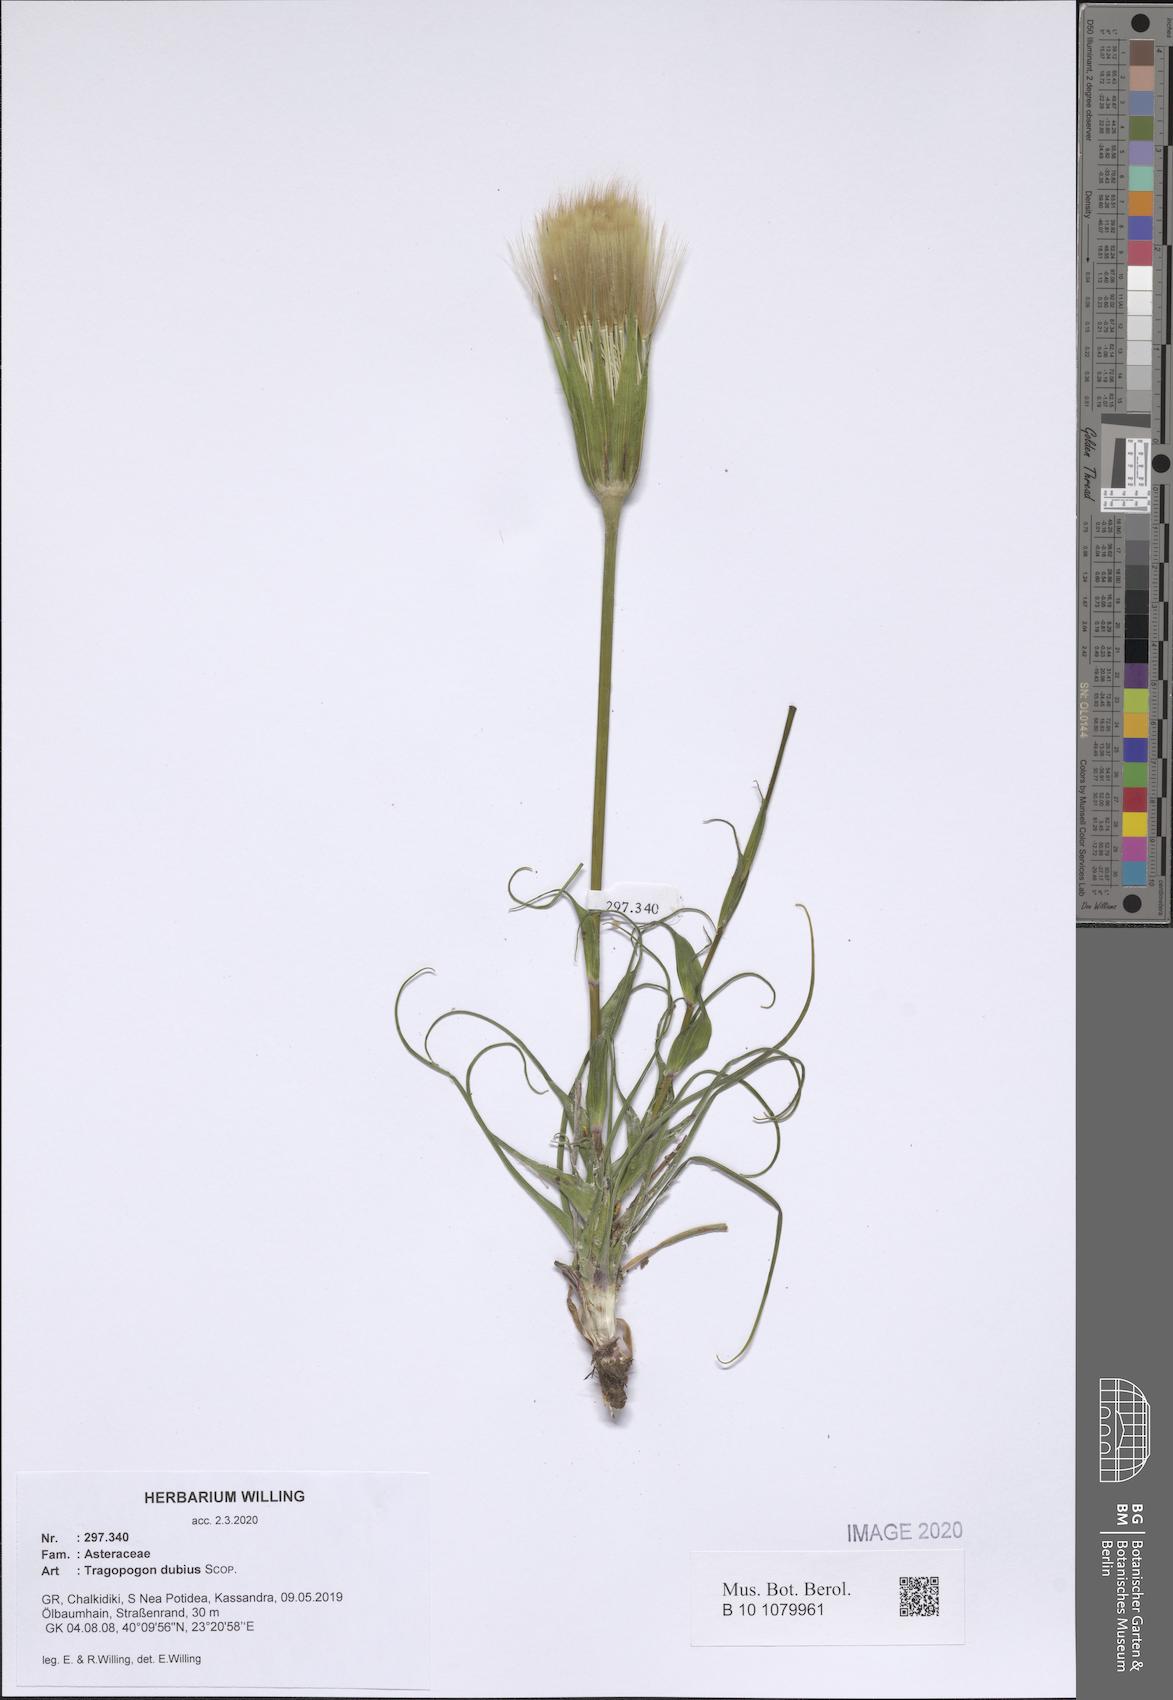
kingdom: Plantae
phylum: Tracheophyta
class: Magnoliopsida
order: Asterales
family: Asteraceae
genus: Tragopogon
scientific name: Tragopogon dubius
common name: Yellow salsify
